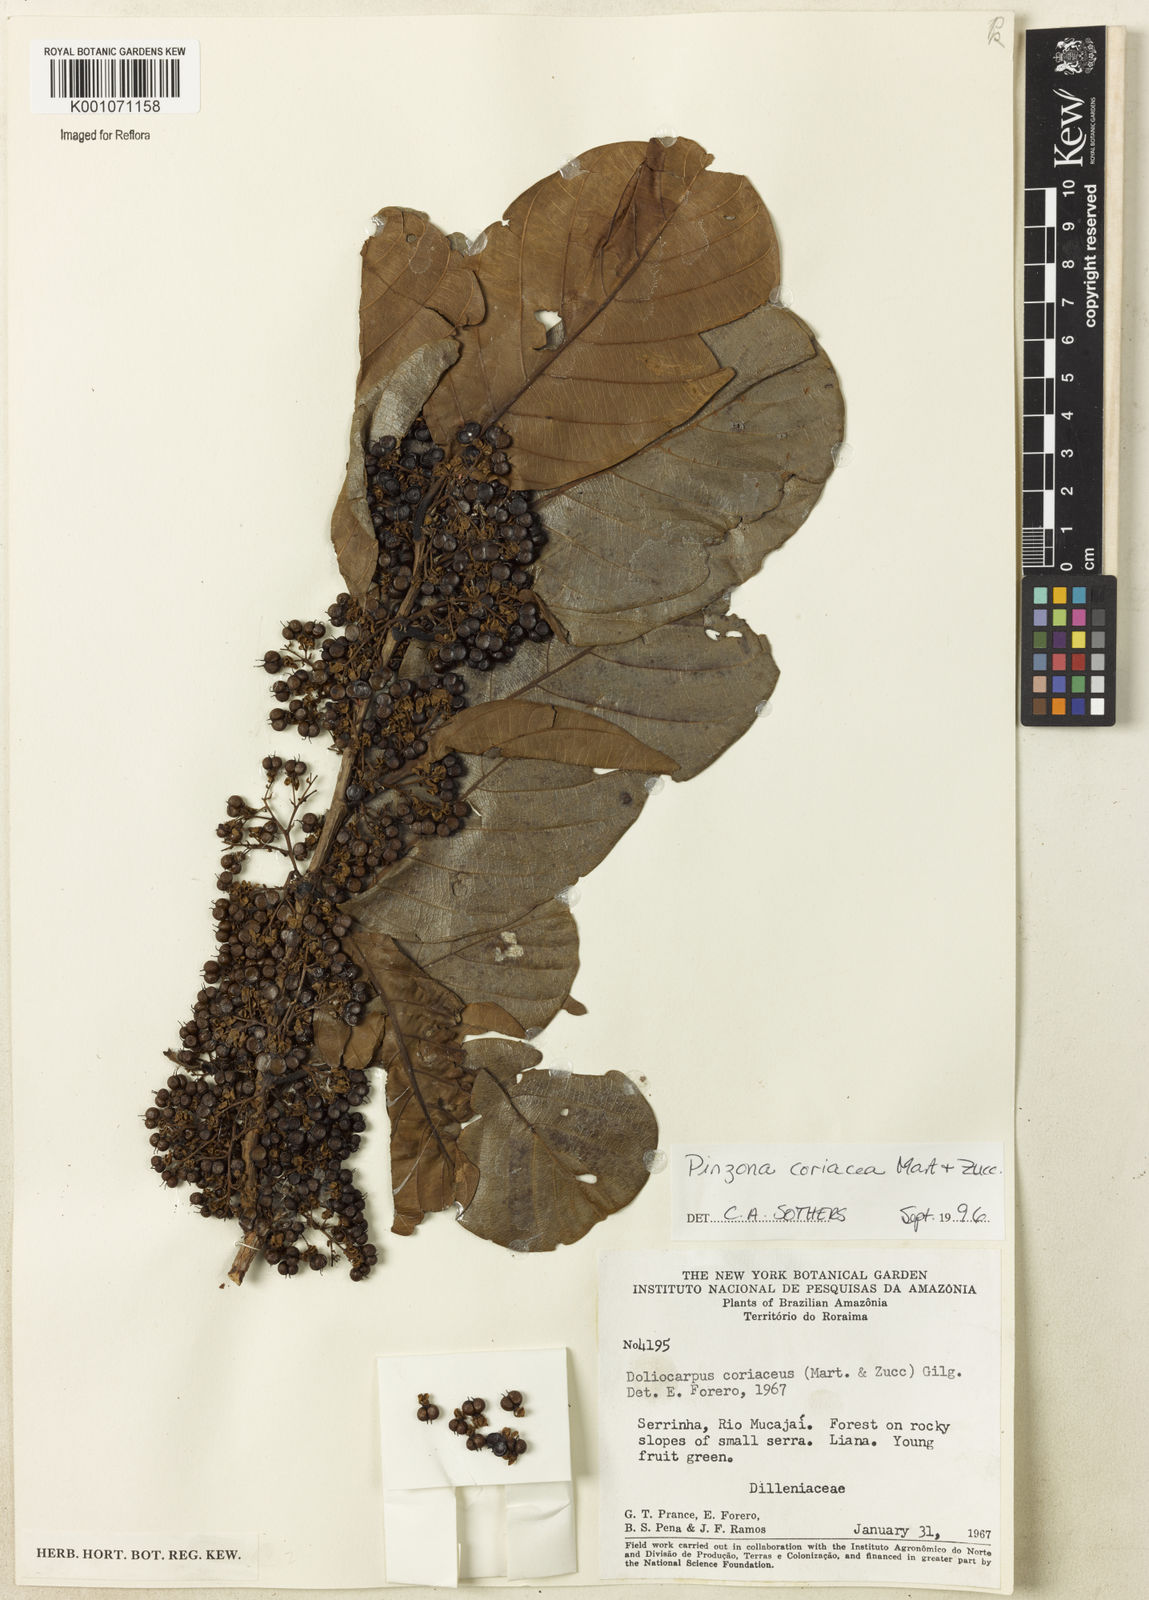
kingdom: Plantae
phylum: Tracheophyta
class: Magnoliopsida
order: Dilleniales
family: Dilleniaceae
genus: Pinzona
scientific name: Pinzona coriacea
